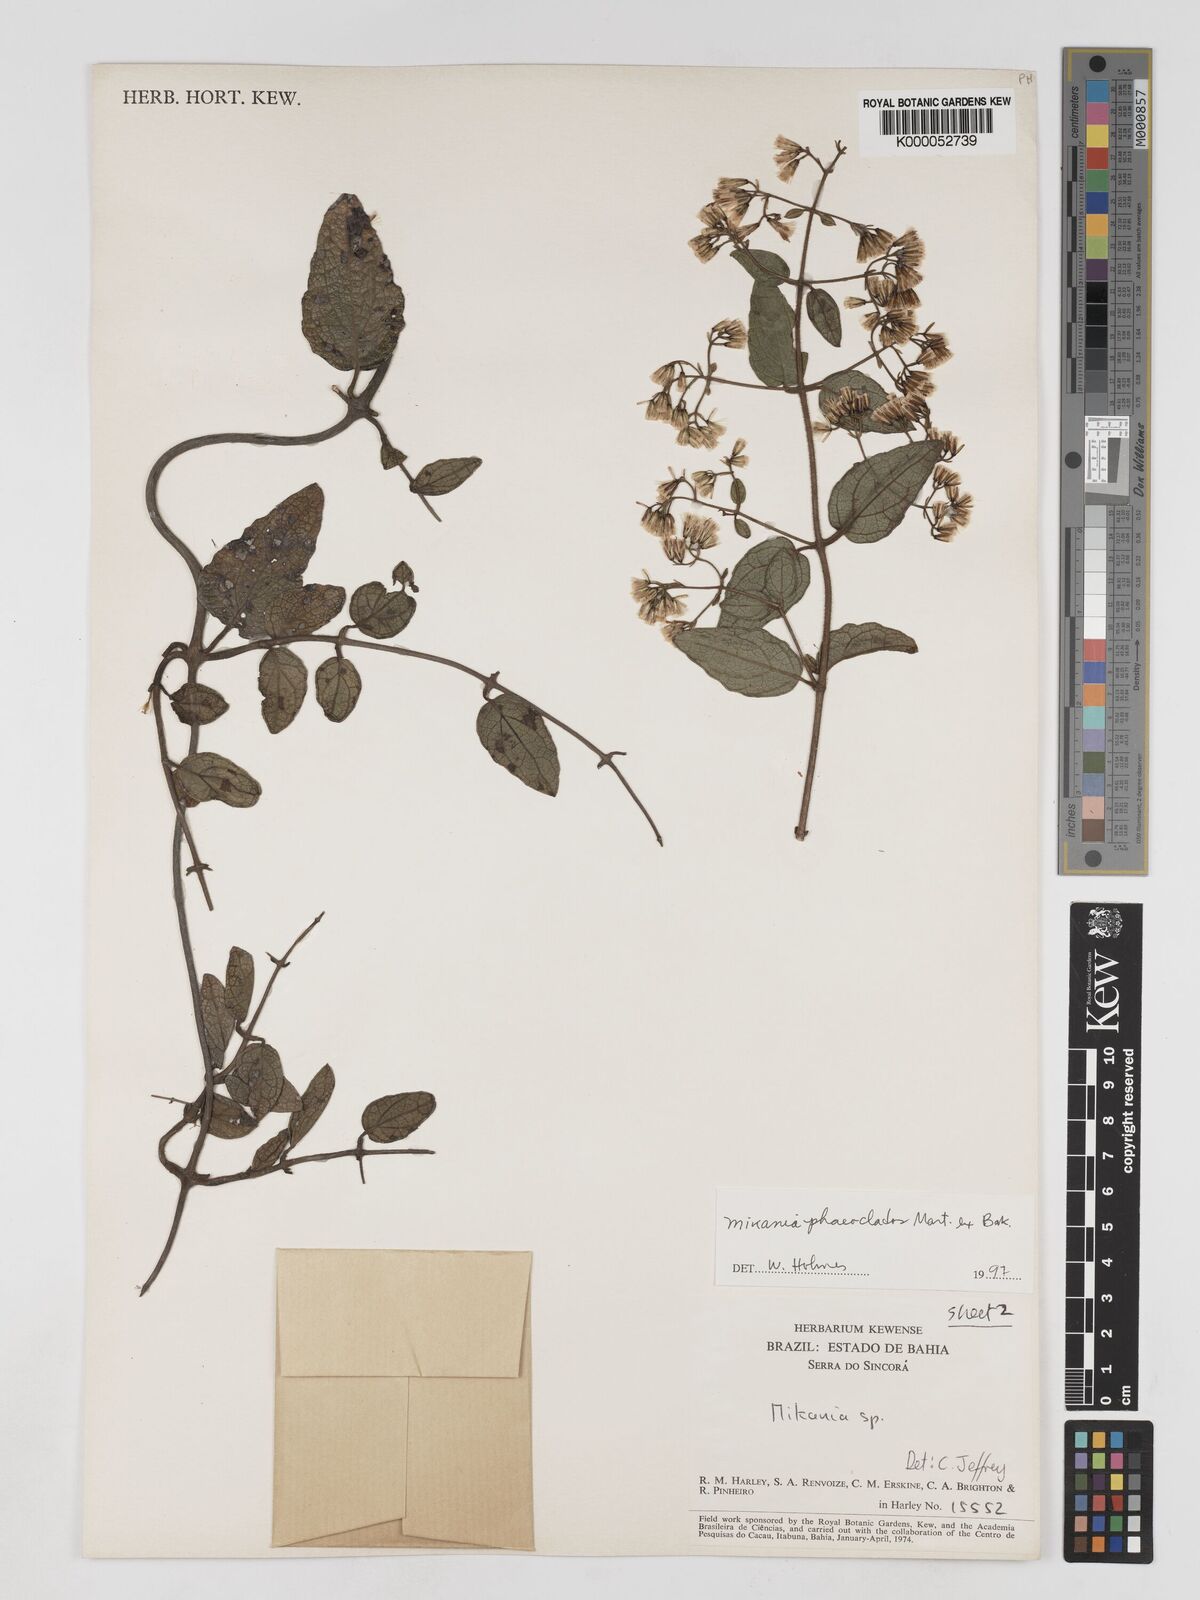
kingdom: Plantae
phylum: Tracheophyta
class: Magnoliopsida
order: Asterales
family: Asteraceae
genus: Mikania
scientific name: Mikania phaeoclados
